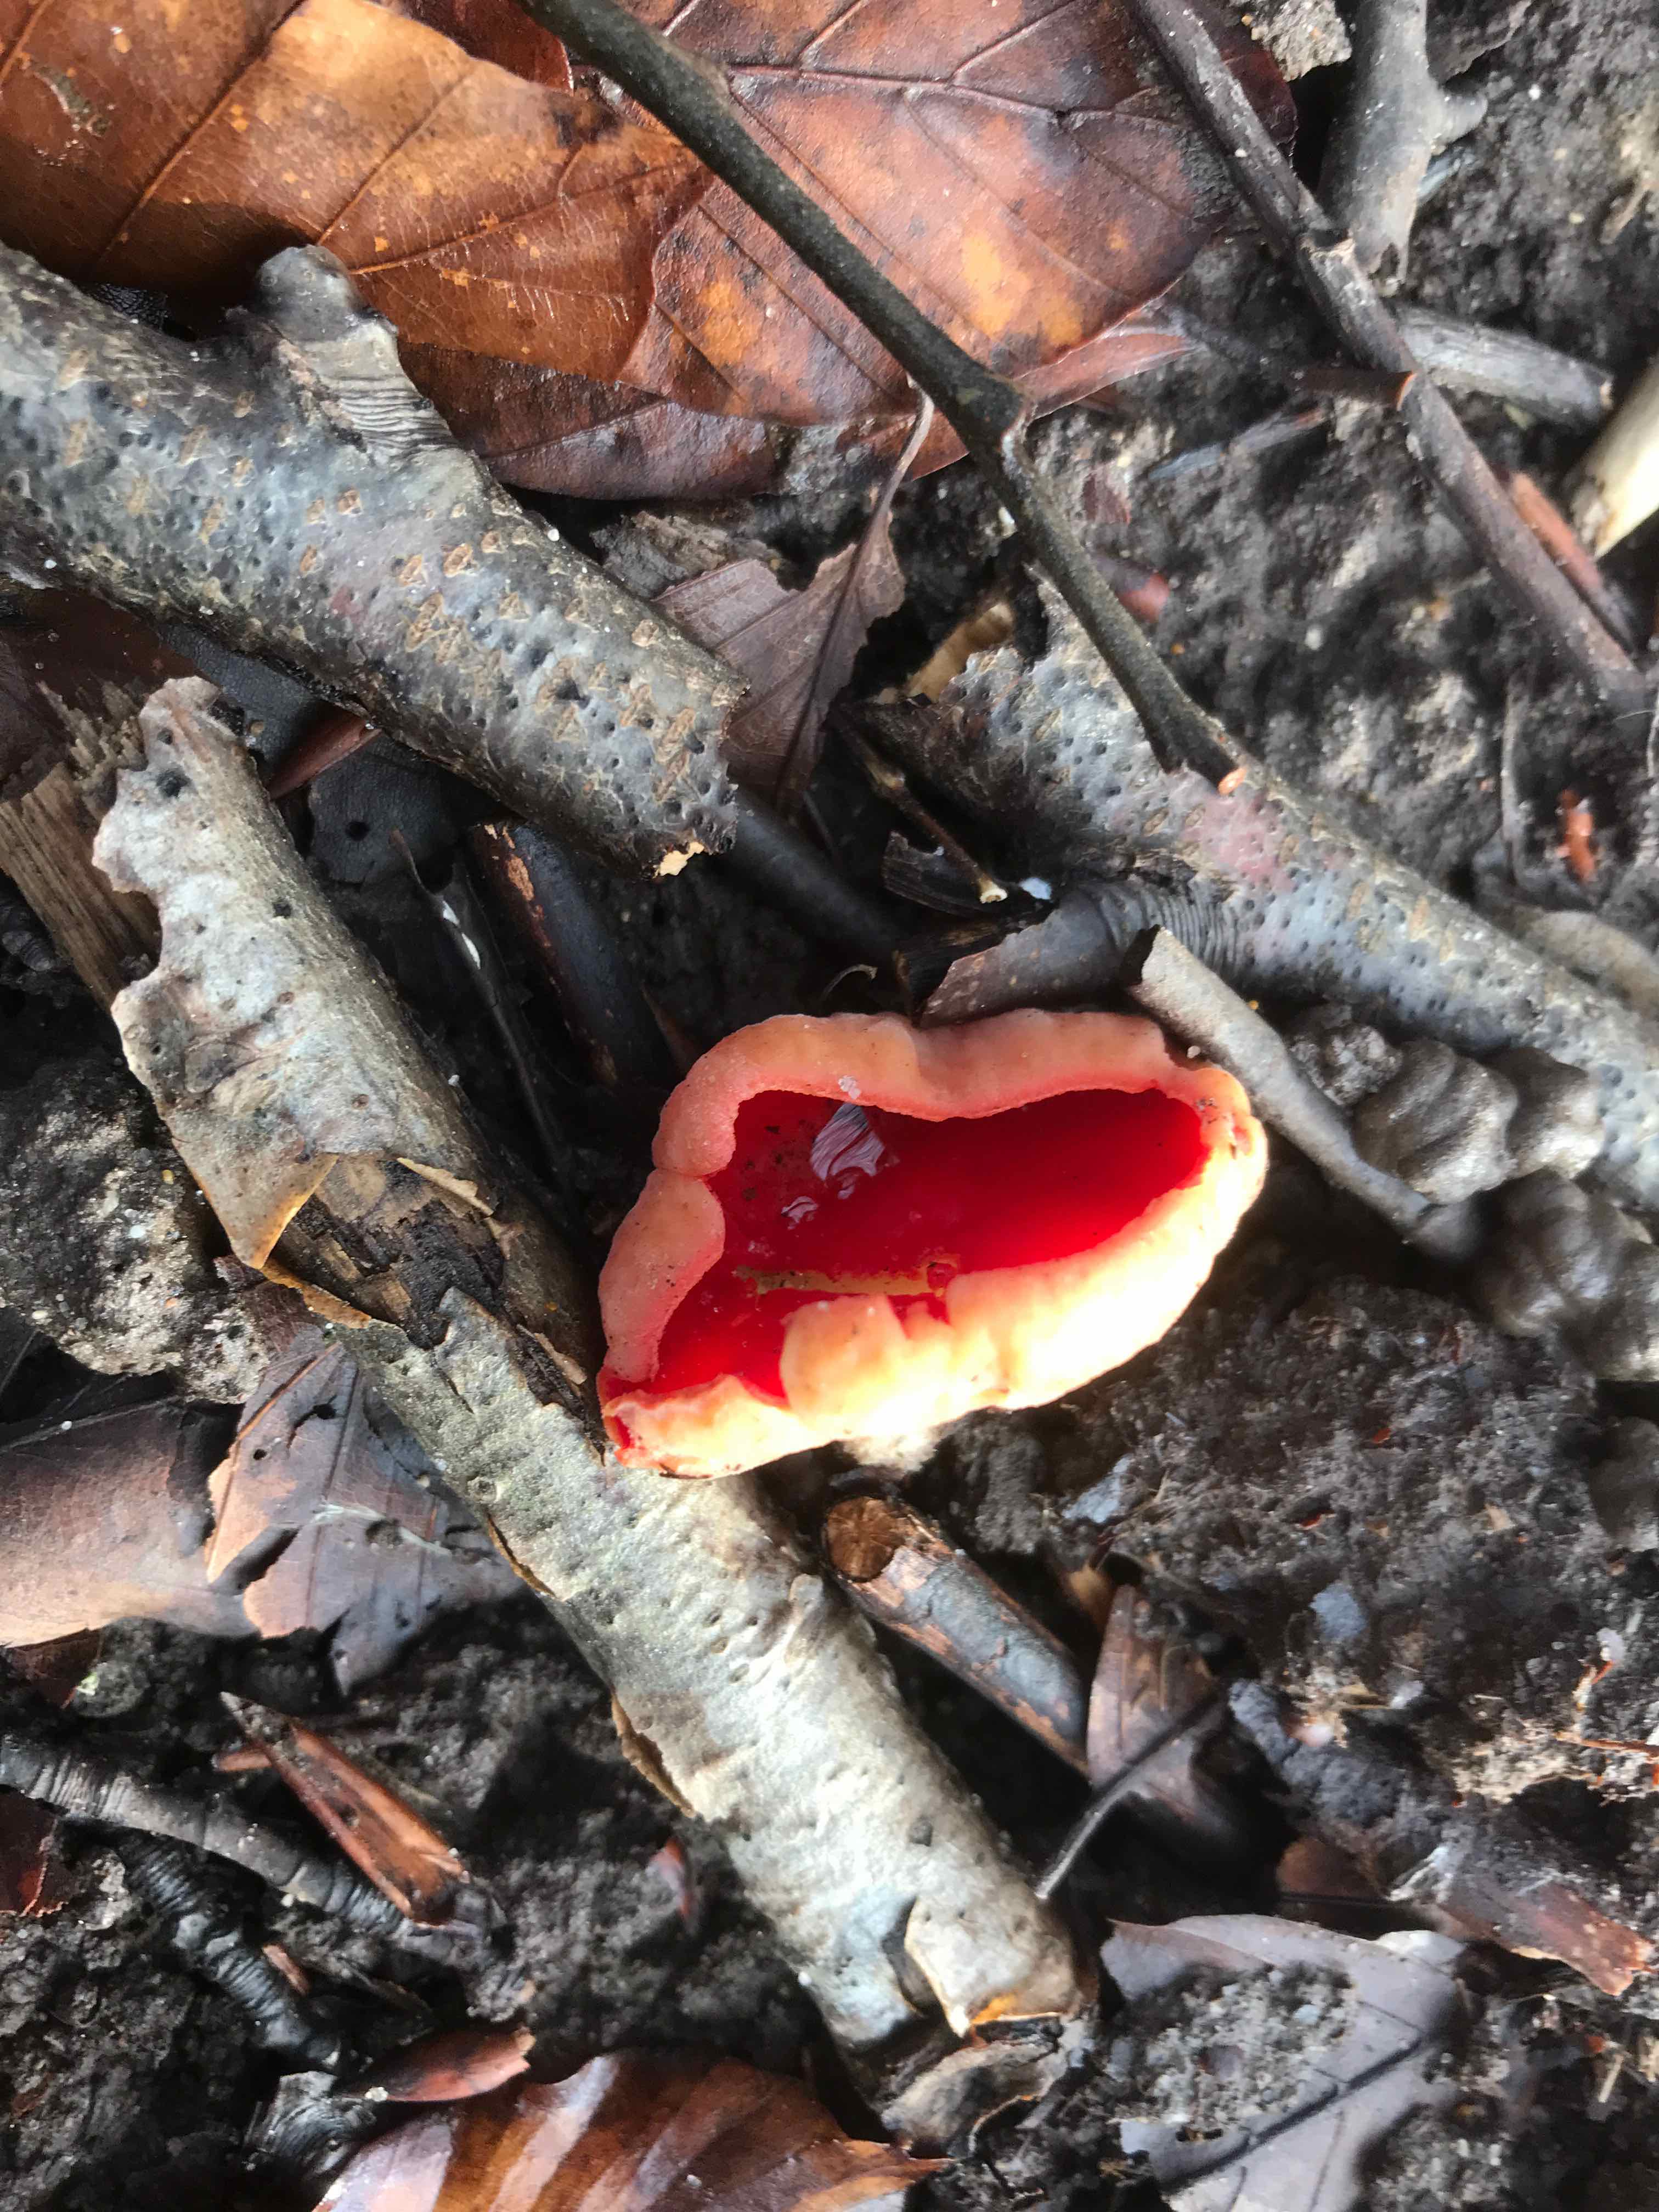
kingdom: Fungi
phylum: Ascomycota
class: Pezizomycetes
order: Pezizales
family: Sarcoscyphaceae
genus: Sarcoscypha
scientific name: Sarcoscypha austriaca
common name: krølhåret pragtbæger
